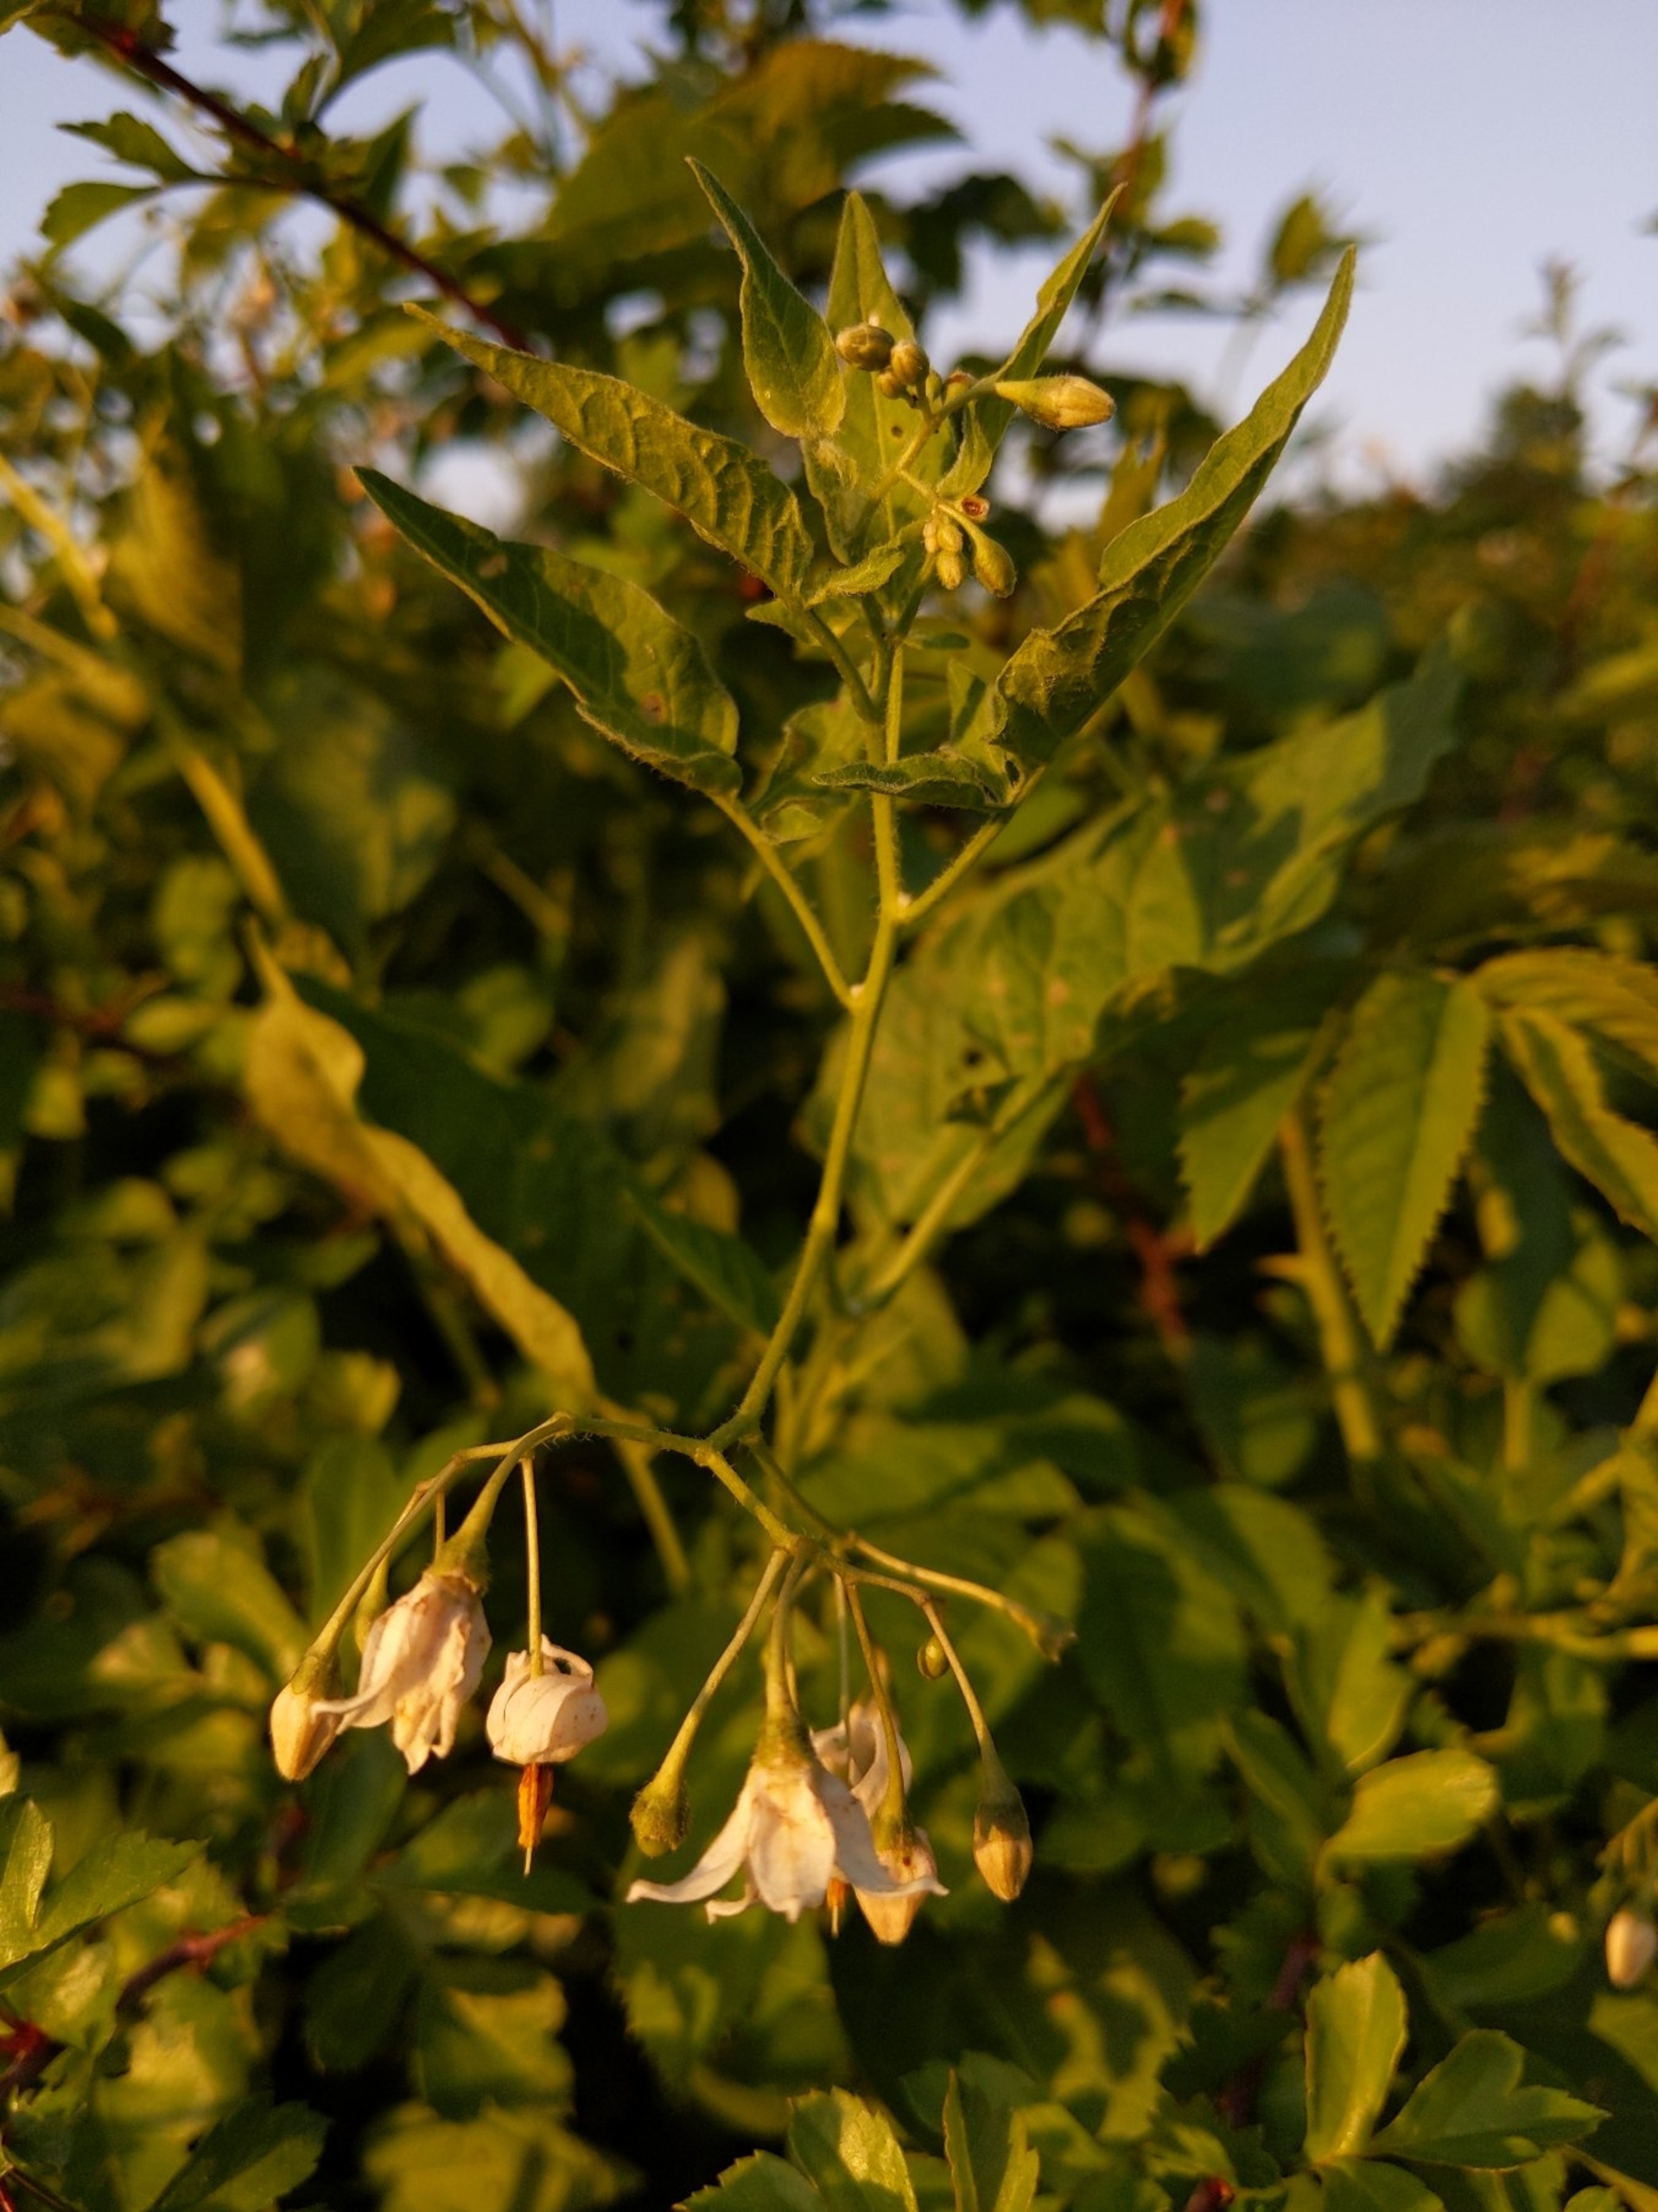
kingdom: Plantae
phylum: Tracheophyta
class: Magnoliopsida
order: Solanales
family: Solanaceae
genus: Solanum
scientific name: Solanum dulcamara
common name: Bittersød natskygge
